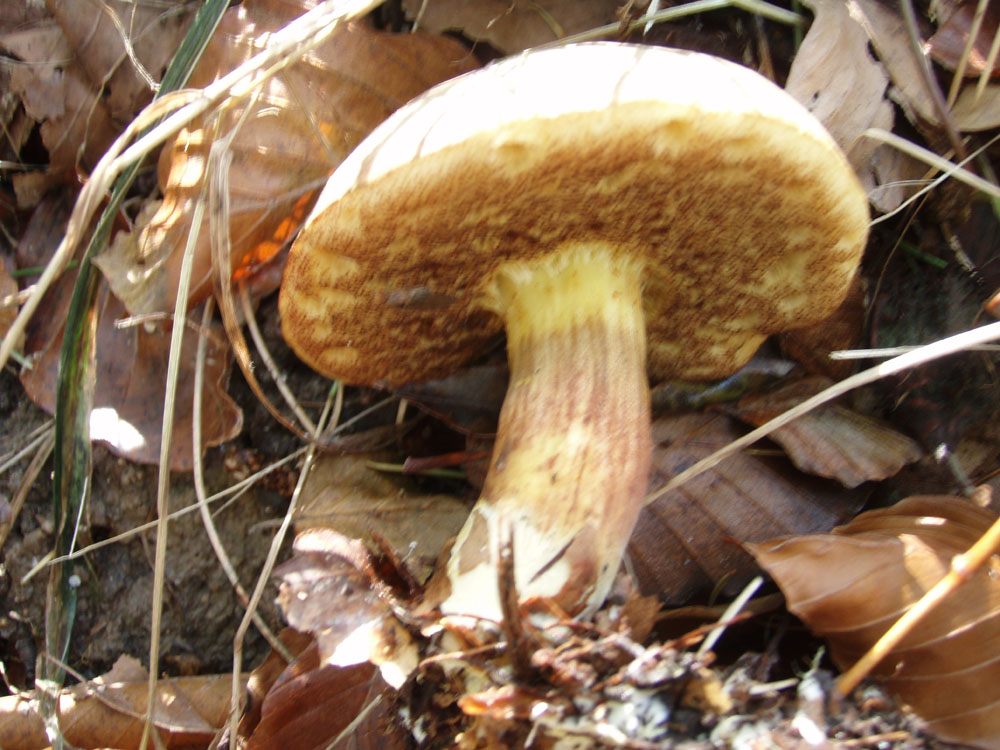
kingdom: Fungi
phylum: Basidiomycota
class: Agaricomycetes
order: Boletales
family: Boletaceae
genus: Xerocomellus
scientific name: Xerocomellus pruinatus
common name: dugget rørhat
